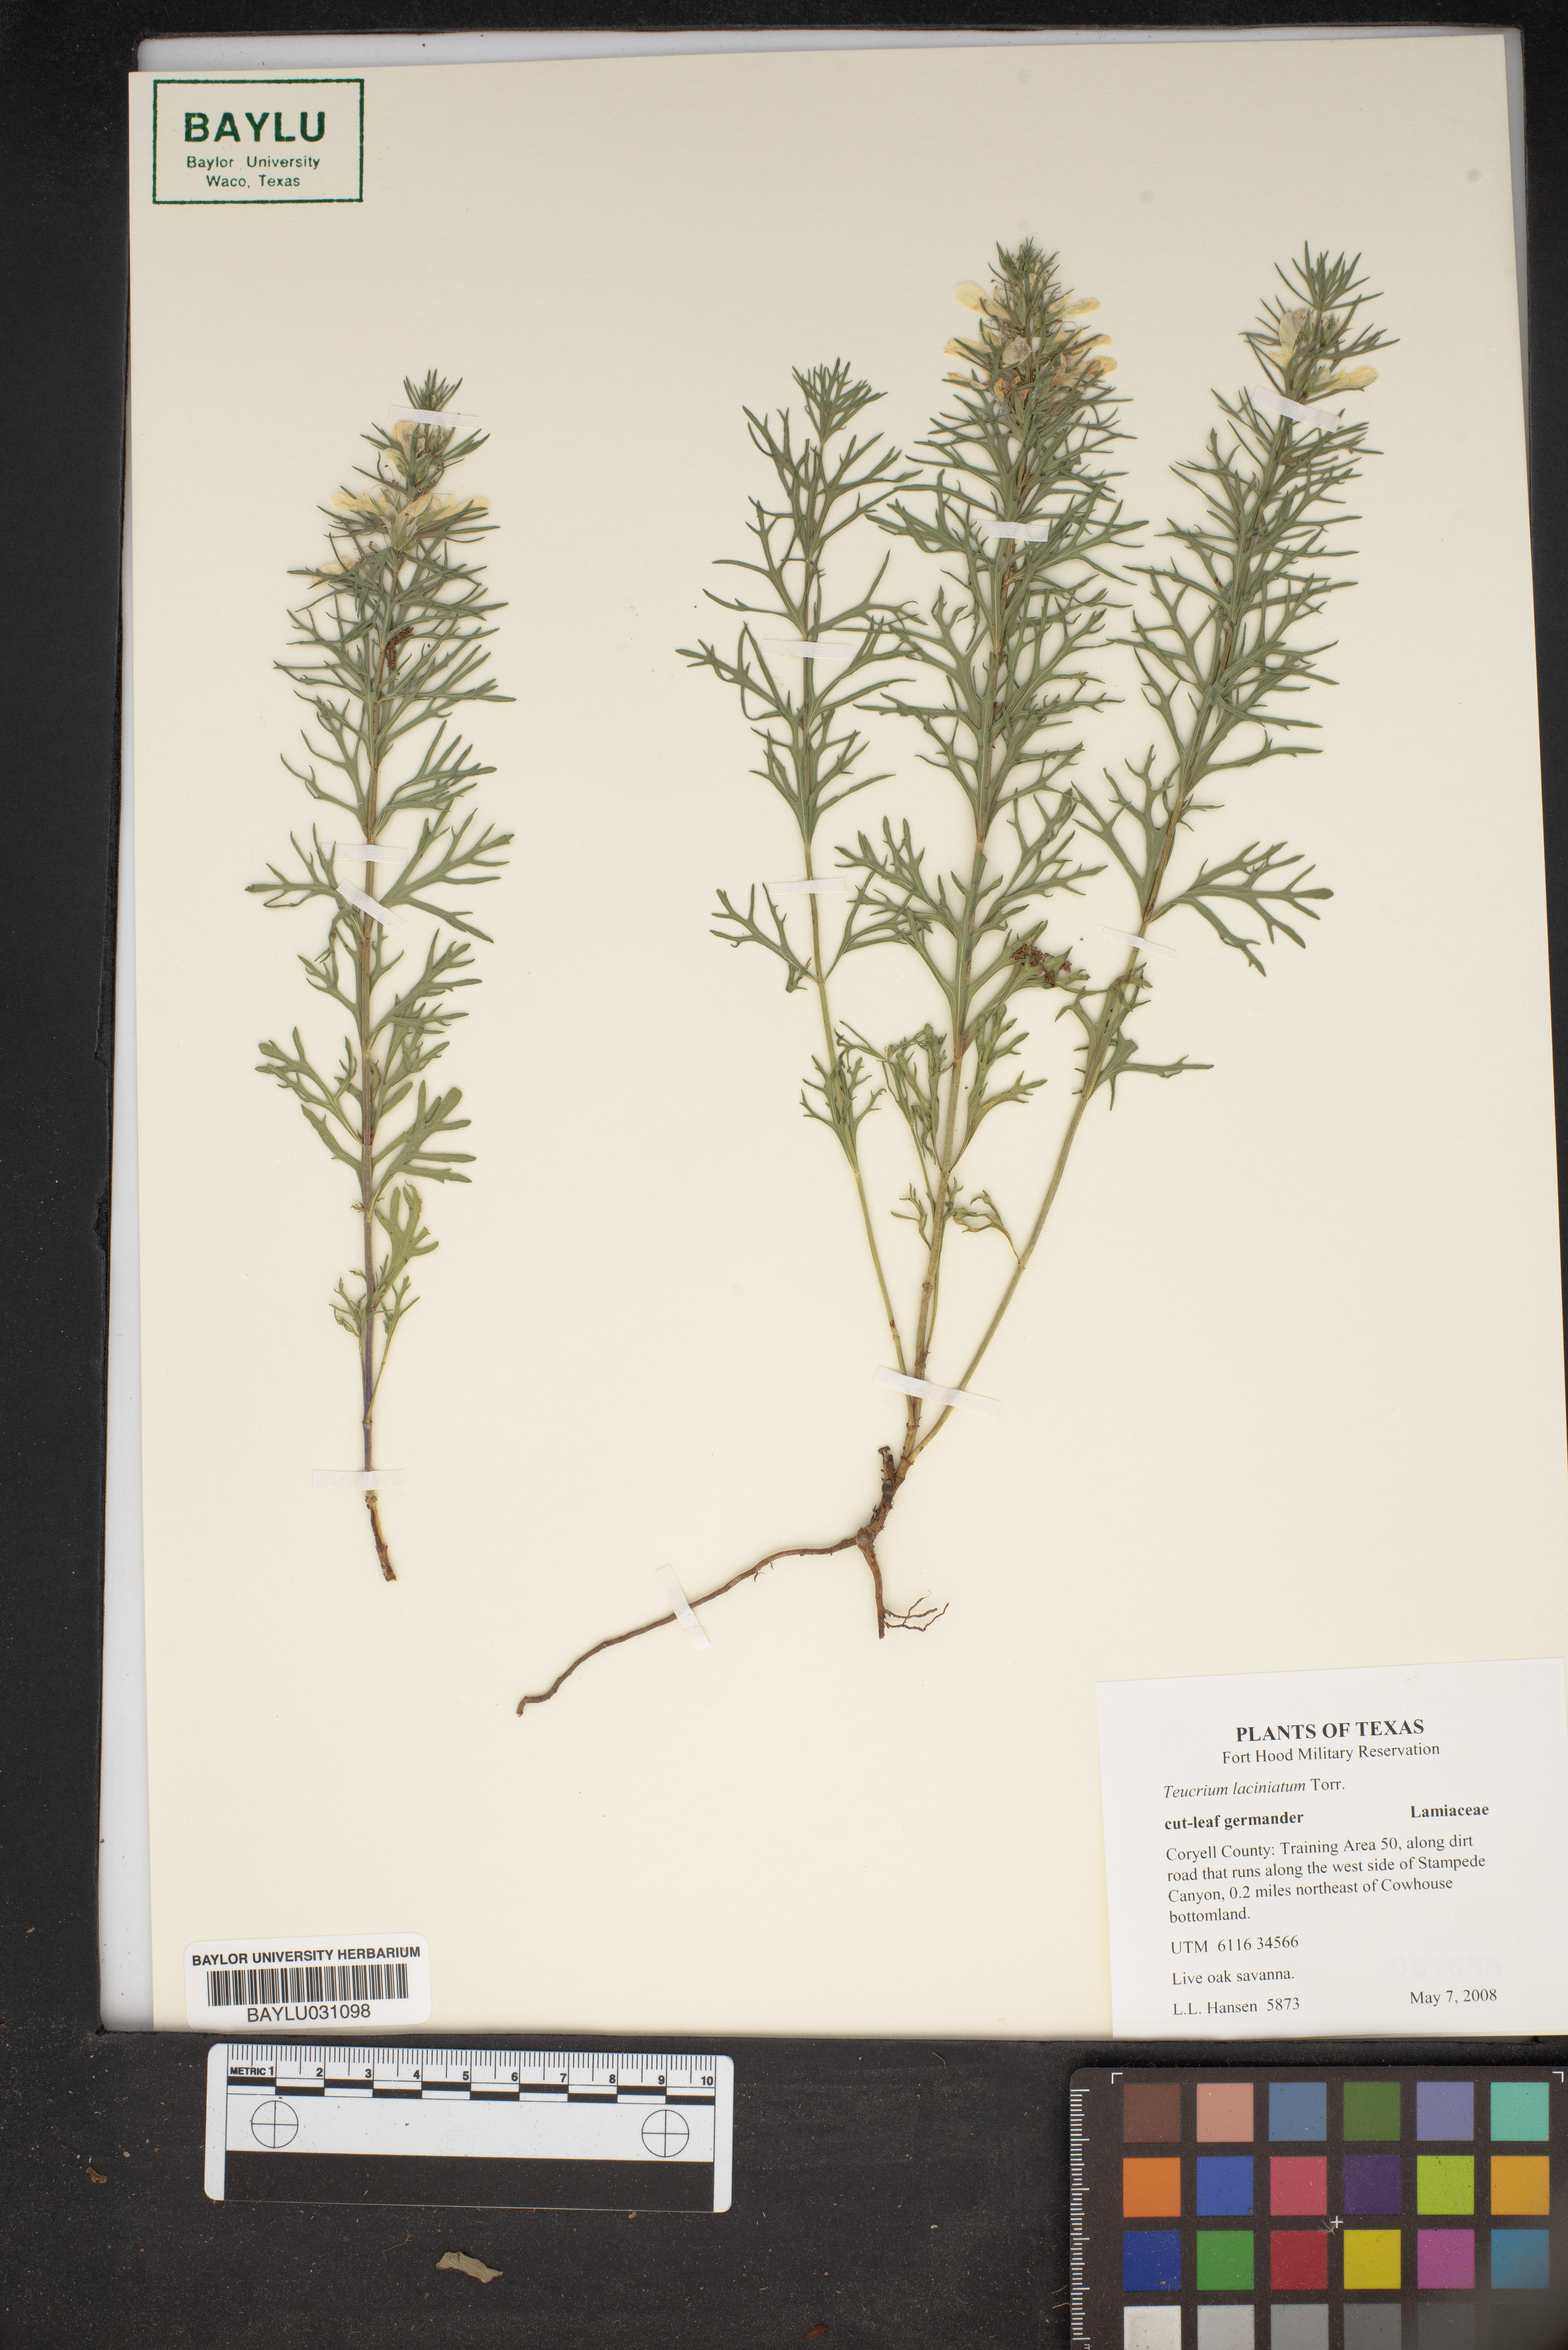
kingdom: Plantae
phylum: Tracheophyta
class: Magnoliopsida
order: Lamiales
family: Lamiaceae
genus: Teucrium
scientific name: Teucrium laciniatum
